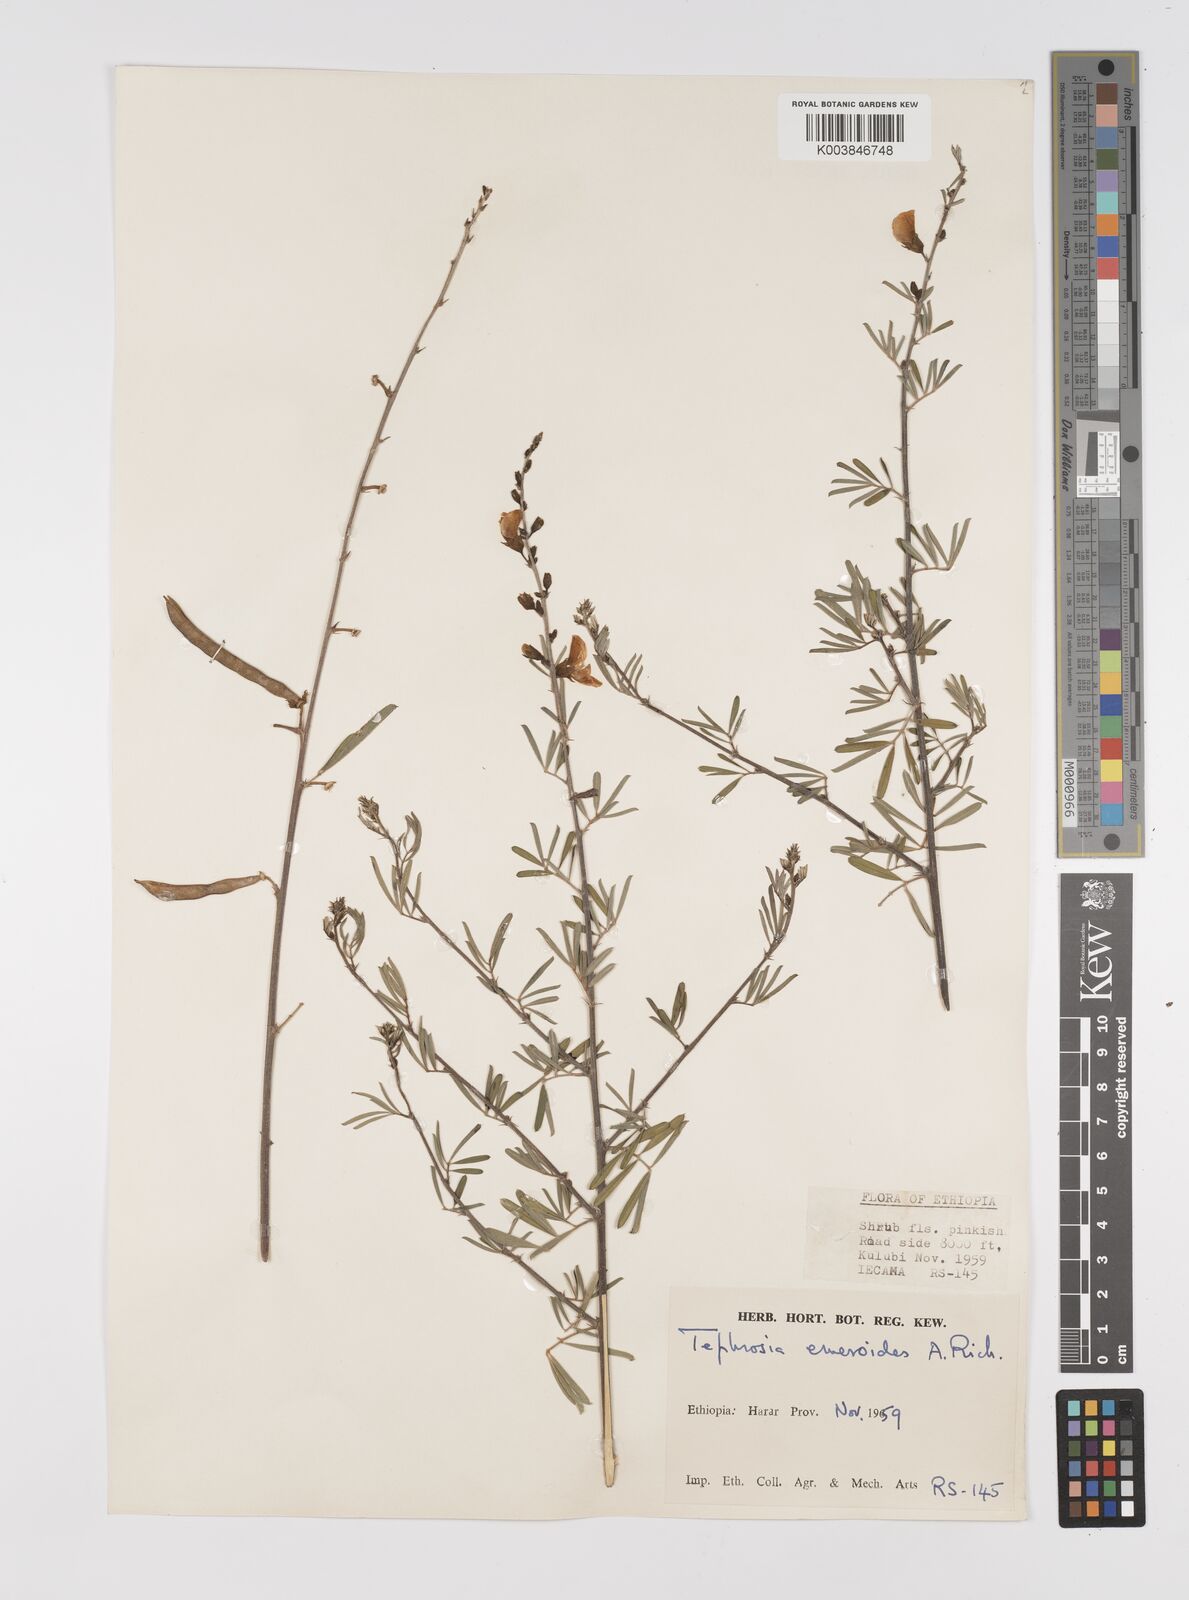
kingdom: Plantae
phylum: Tracheophyta
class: Magnoliopsida
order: Fabales
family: Fabaceae
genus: Tephrosia
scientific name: Tephrosia emeroides
